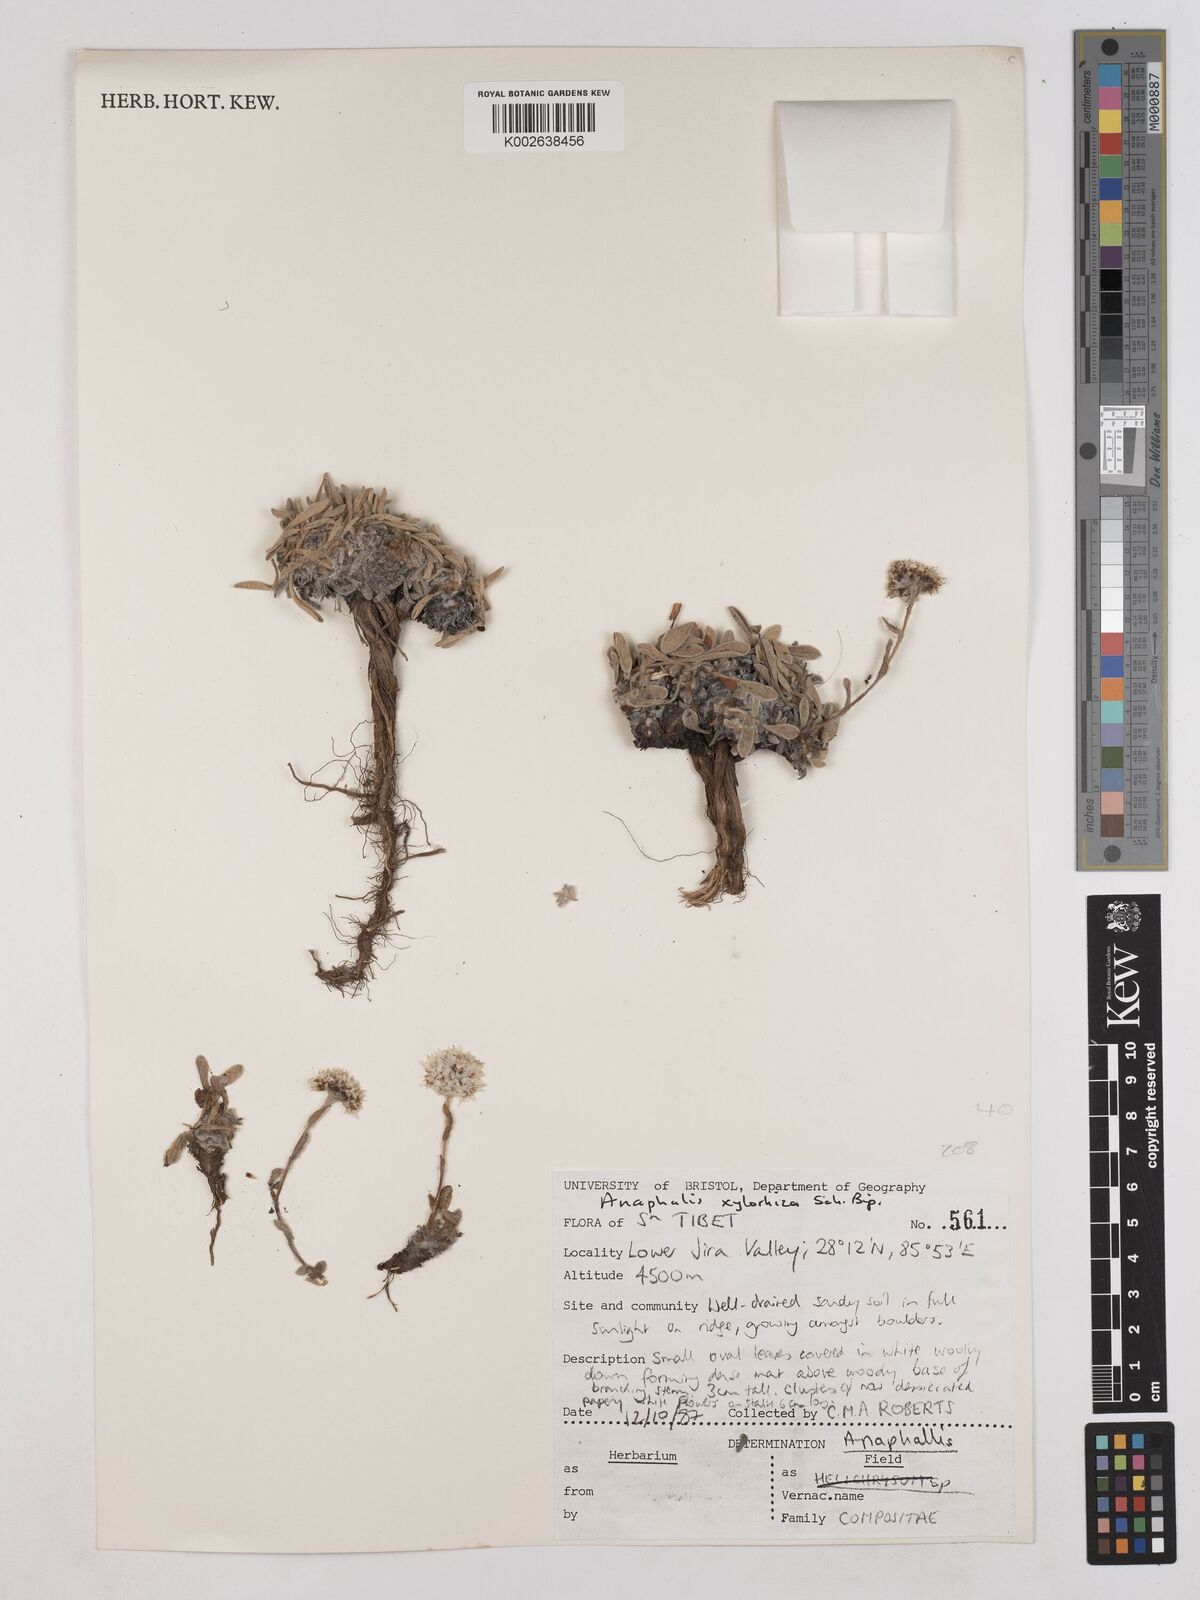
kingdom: Plantae
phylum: Tracheophyta
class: Magnoliopsida
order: Asterales
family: Asteraceae
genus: Anaphalis
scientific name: Anaphalis xylorhiza
